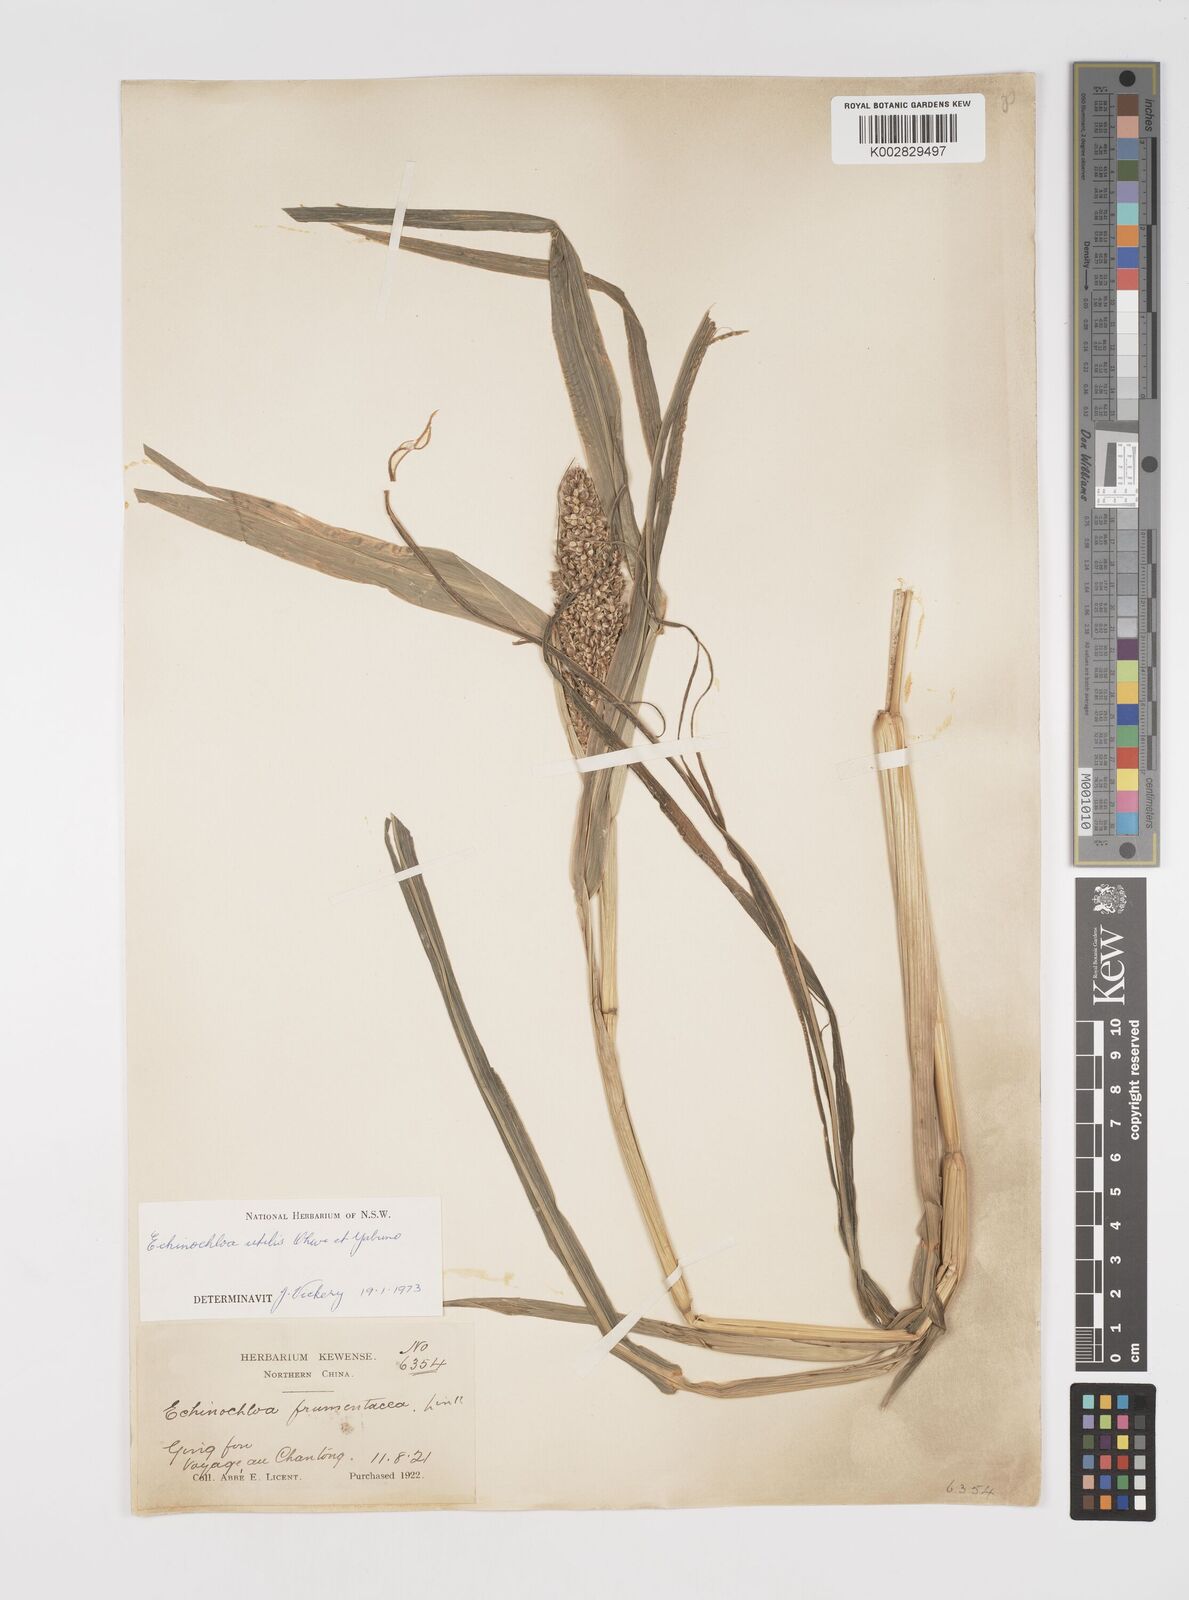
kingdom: Plantae
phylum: Tracheophyta
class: Liliopsida
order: Poales
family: Poaceae
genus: Echinochloa
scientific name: Echinochloa crus-galli
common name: Cockspur
